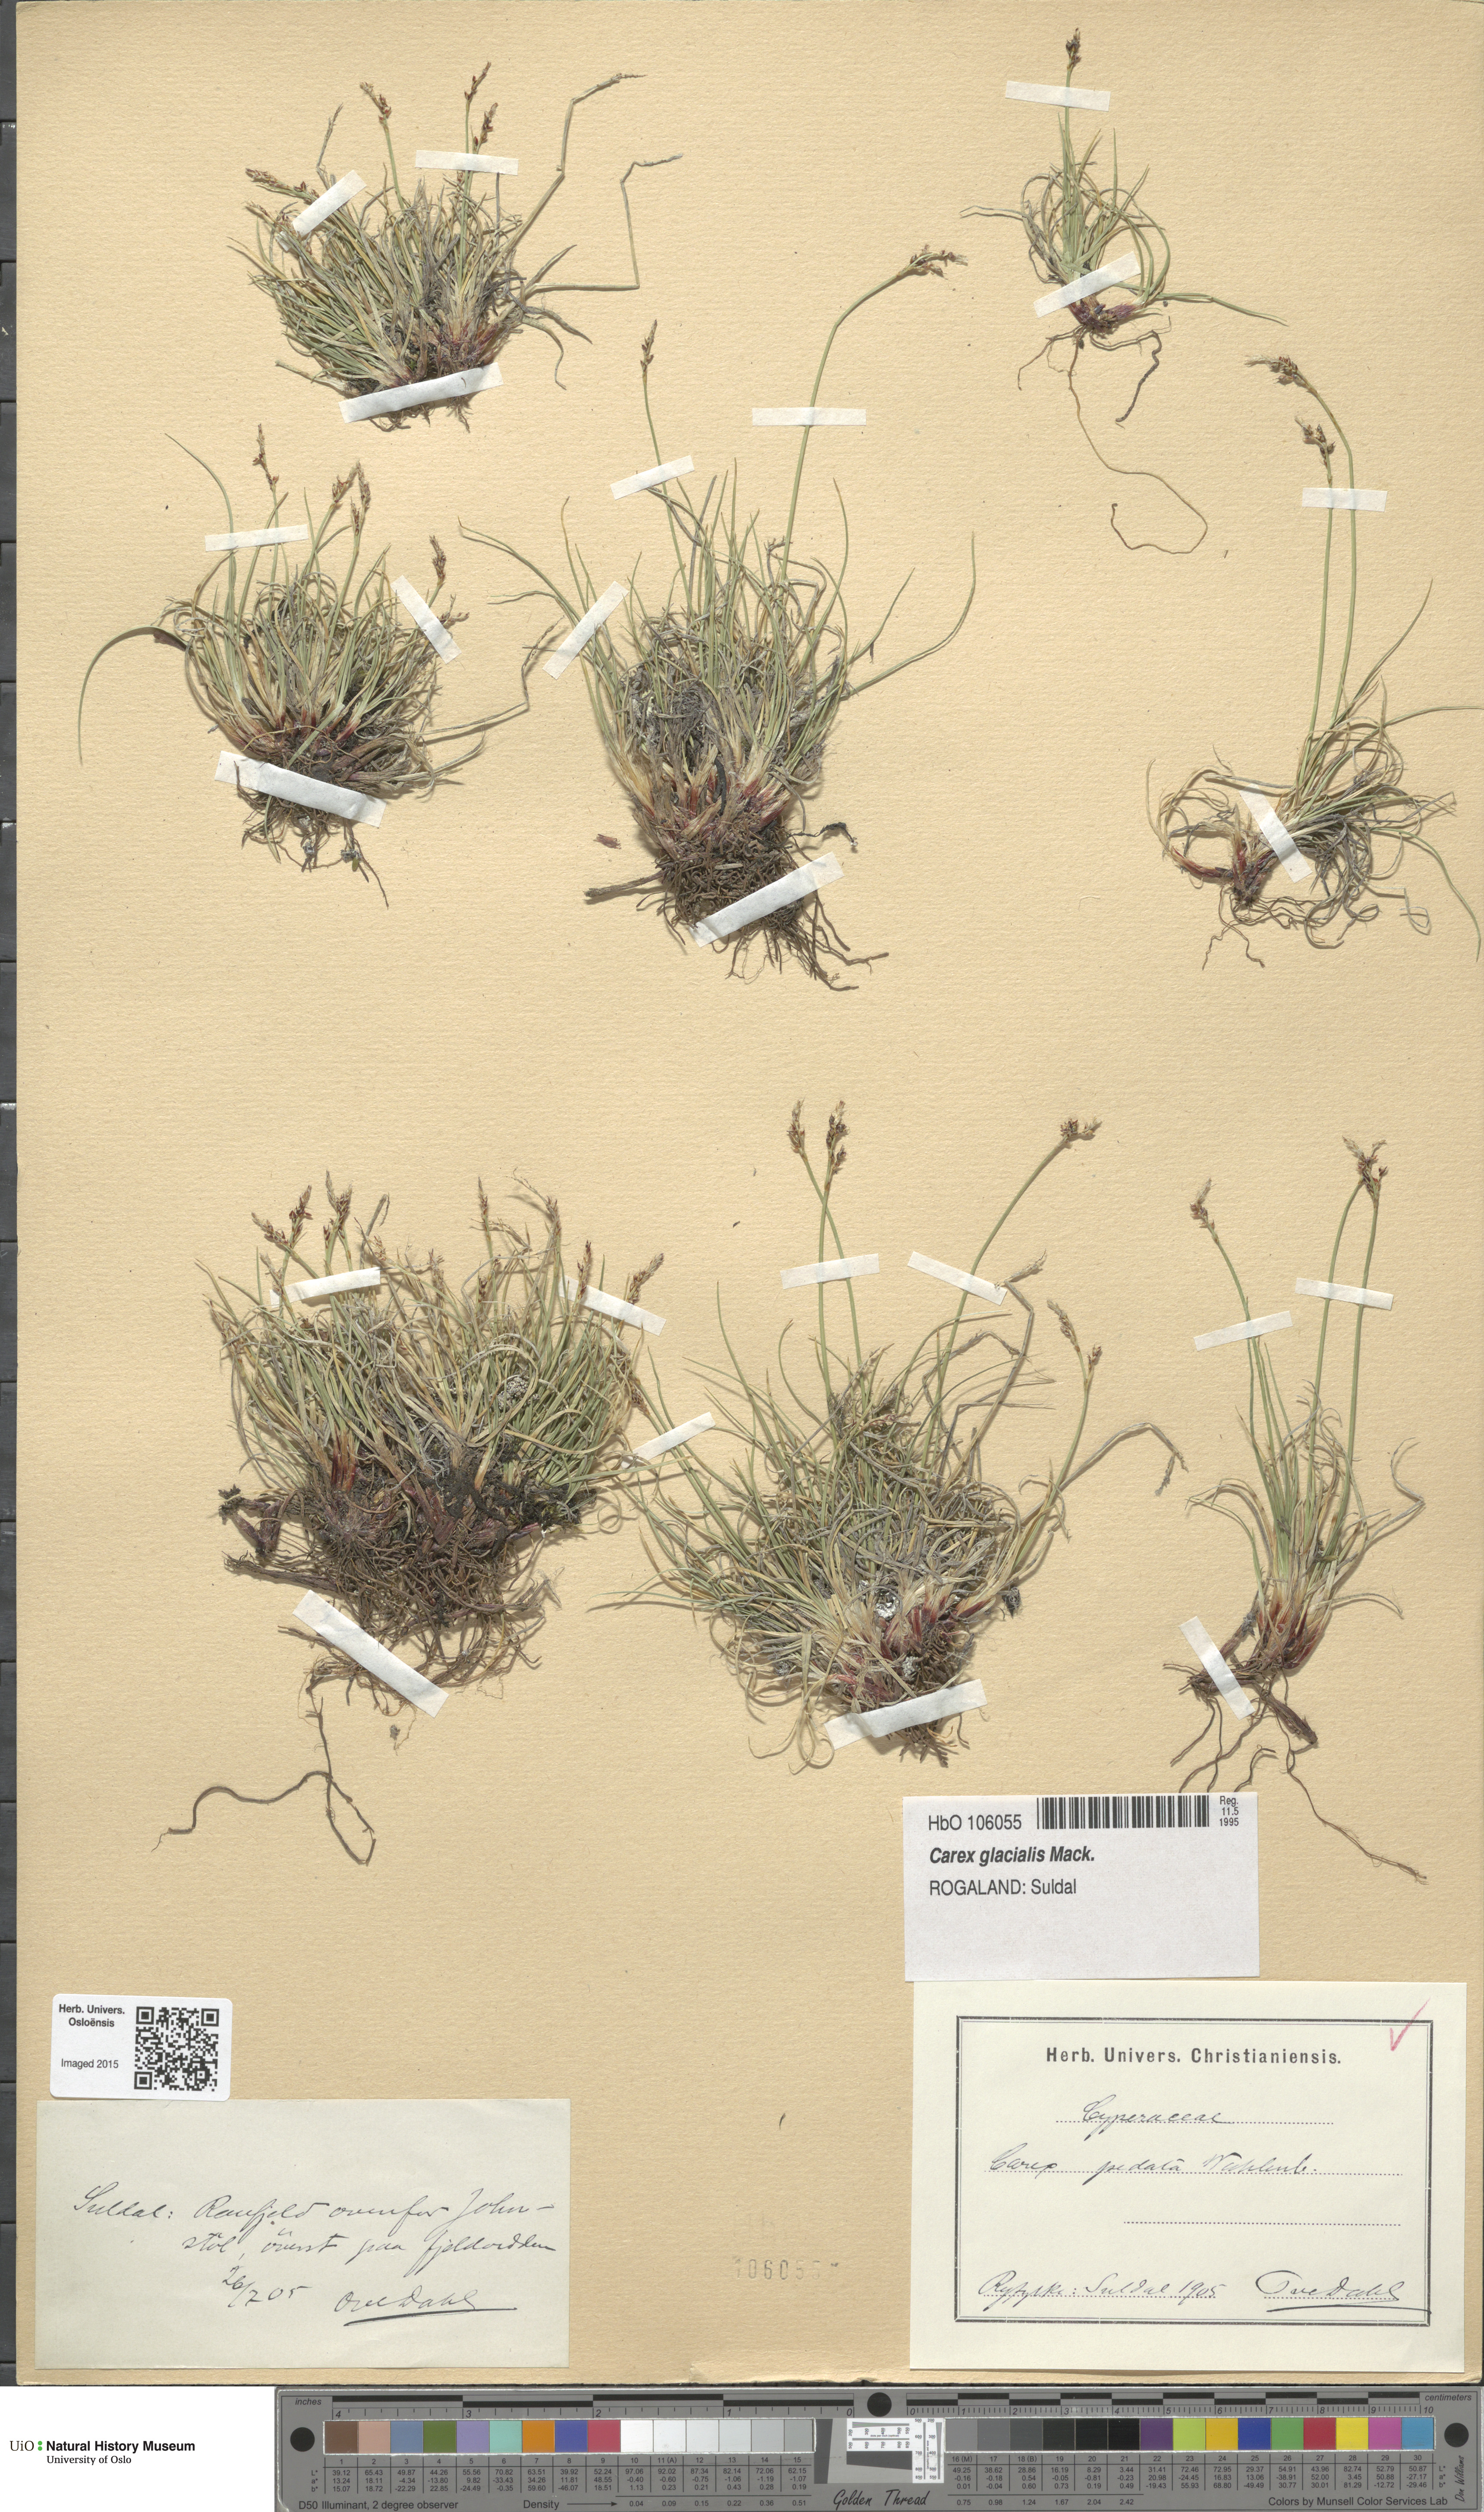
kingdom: Plantae
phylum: Tracheophyta
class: Liliopsida
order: Poales
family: Cyperaceae
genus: Carex
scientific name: Carex glacialis
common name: Newfoundland sedge
